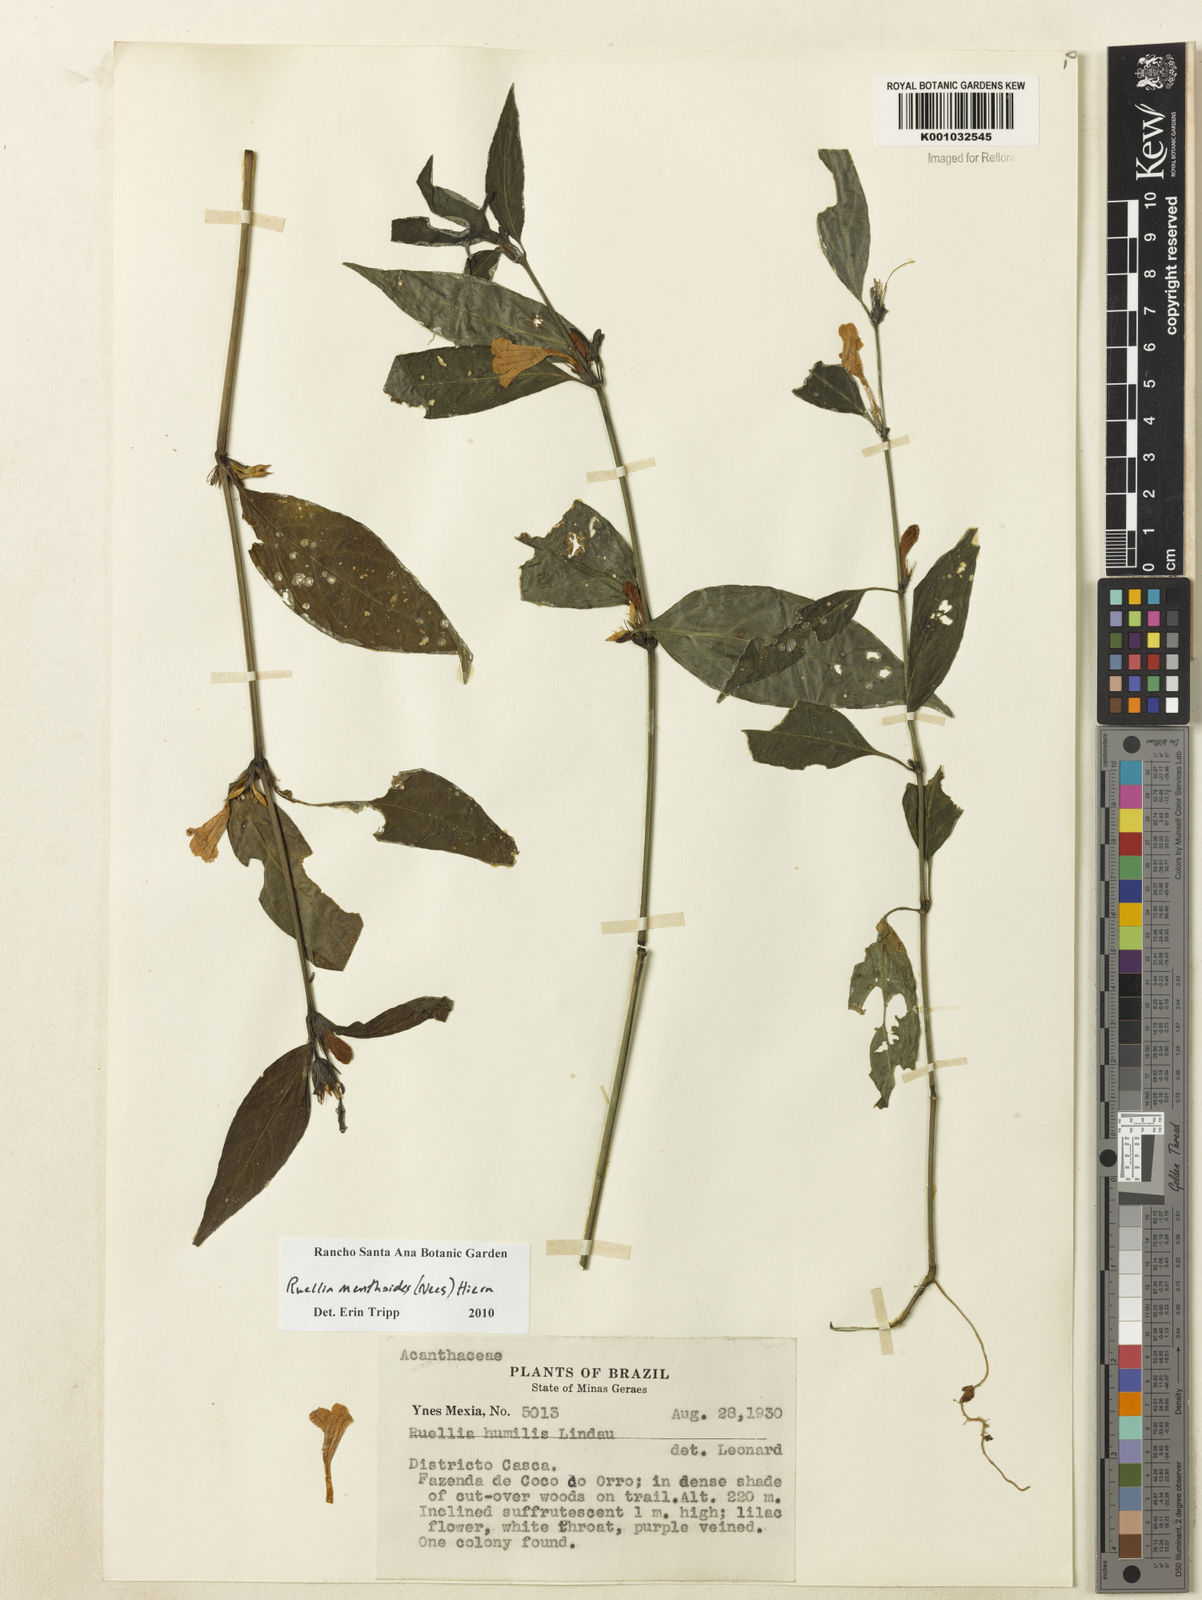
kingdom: Plantae
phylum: Tracheophyta
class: Magnoliopsida
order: Lamiales
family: Acanthaceae
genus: Ruellia
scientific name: Ruellia menthoides
